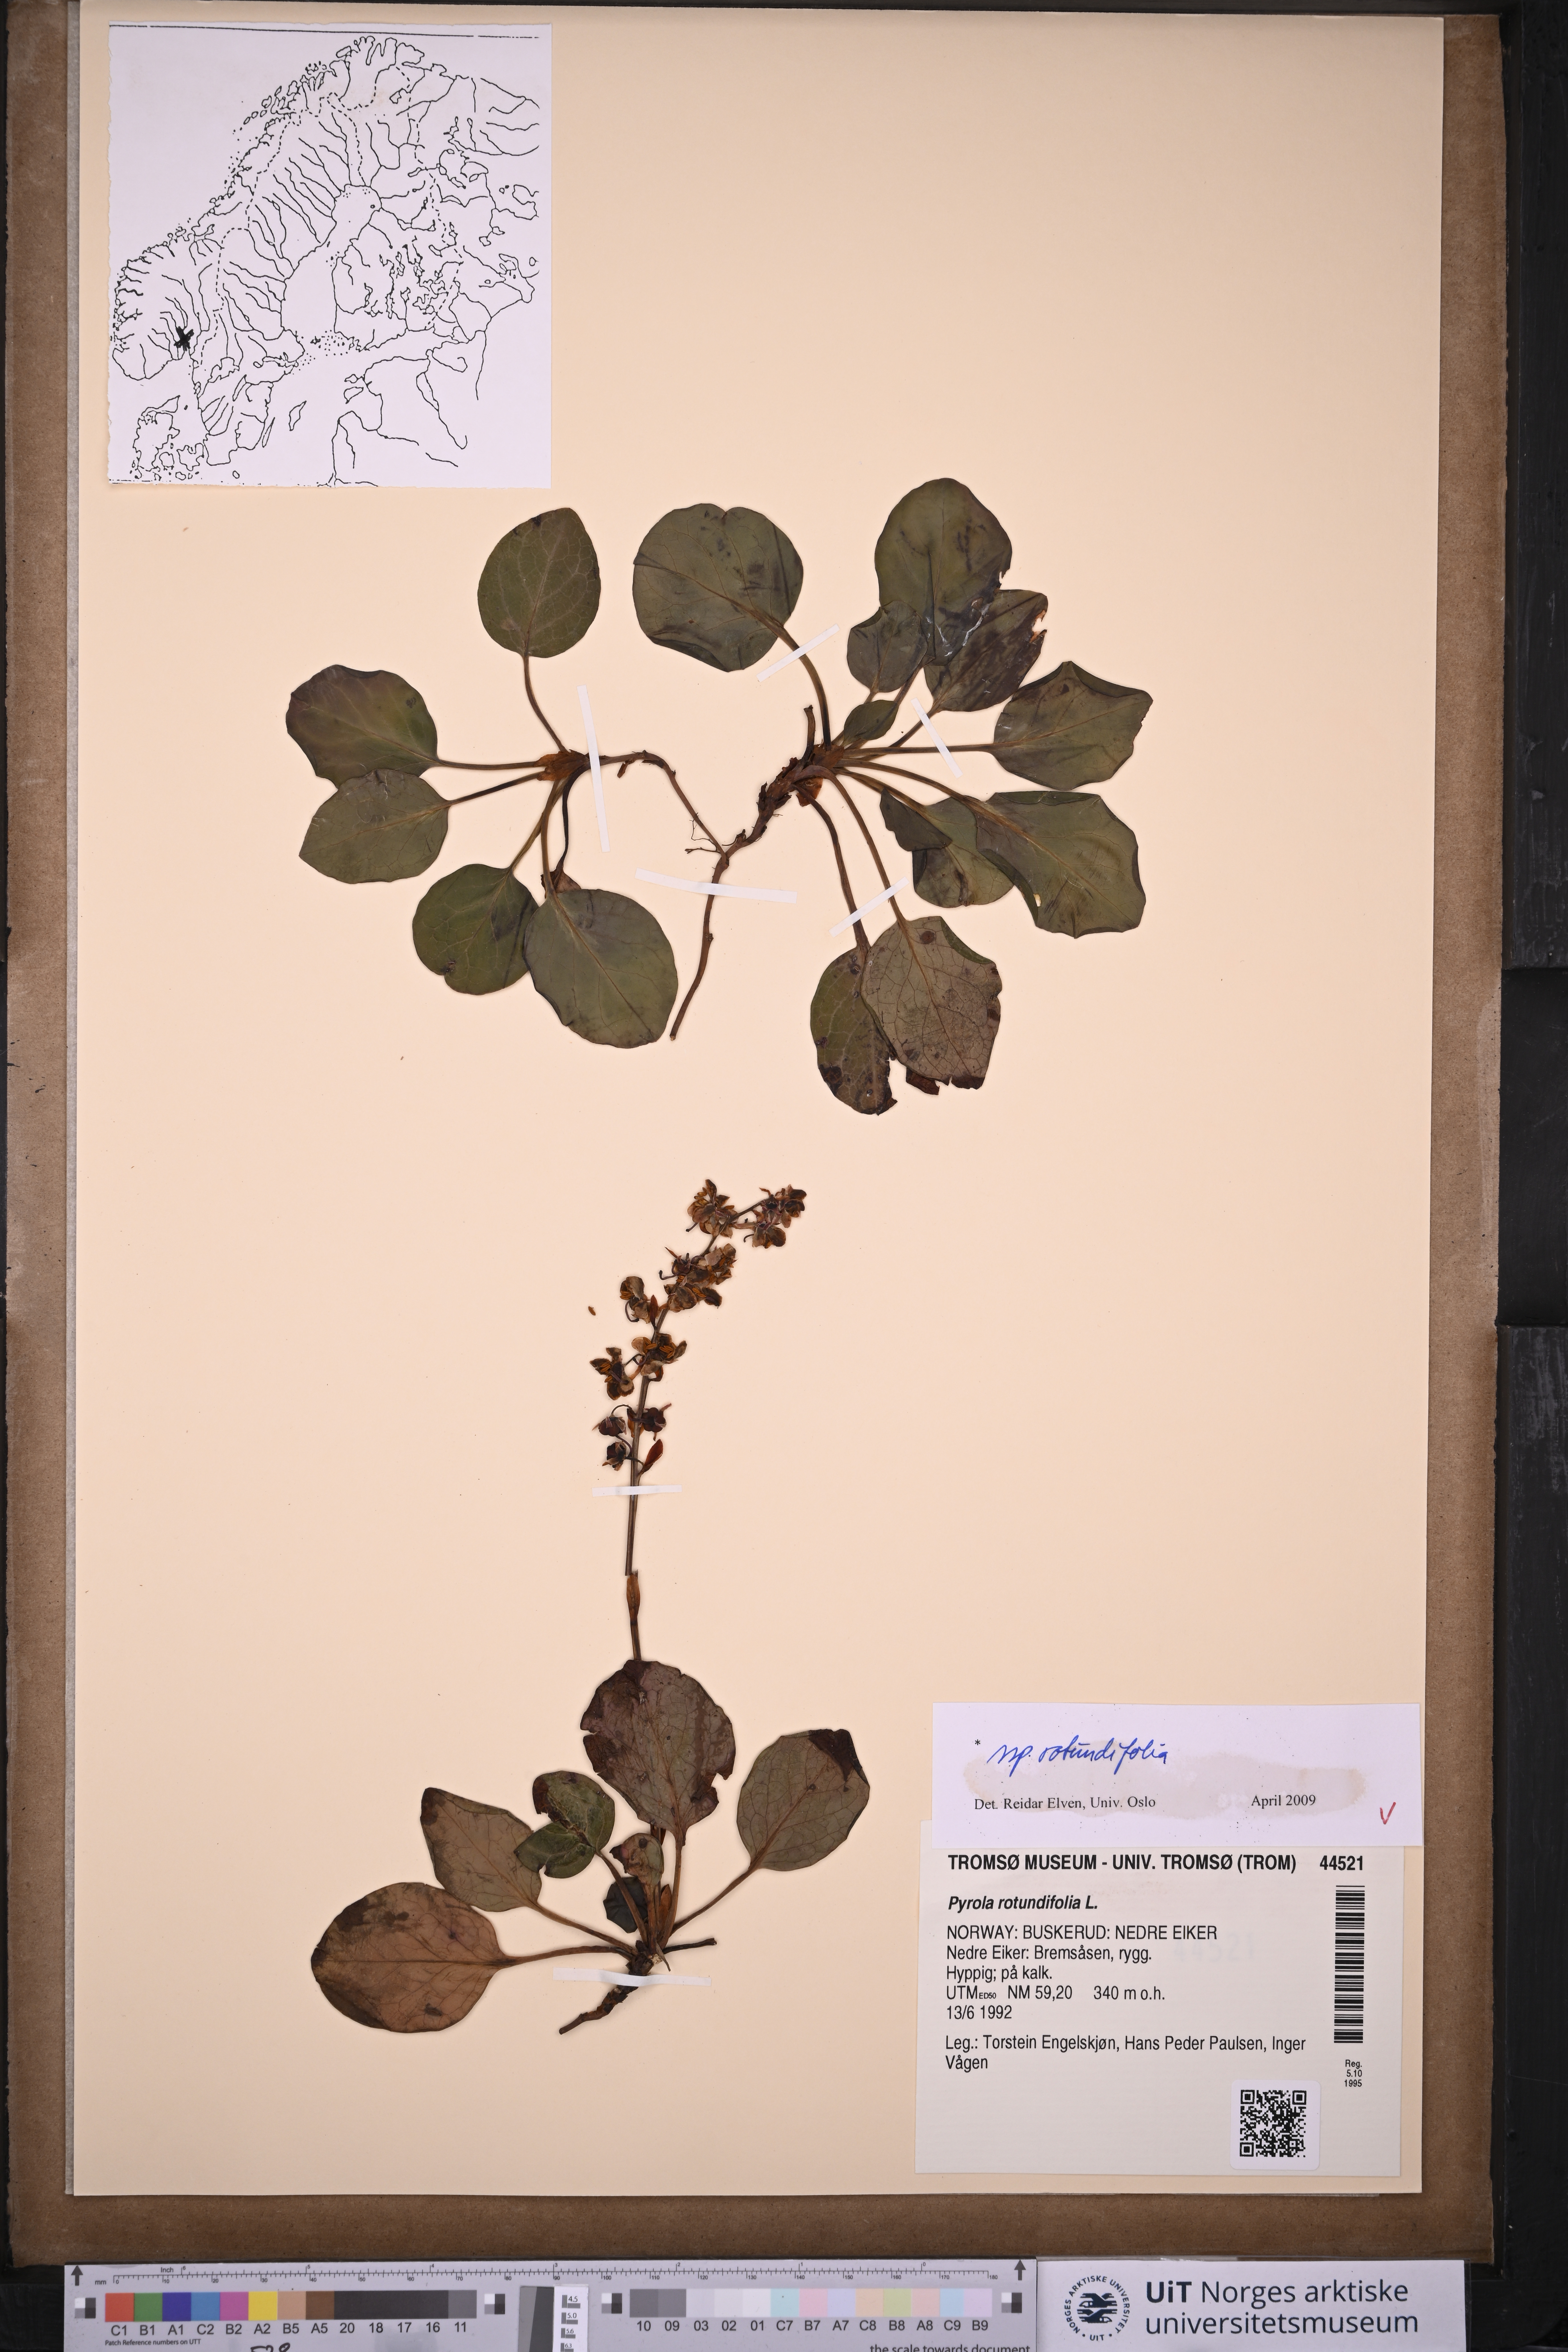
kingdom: Plantae
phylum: Tracheophyta
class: Magnoliopsida
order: Ericales
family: Ericaceae
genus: Pyrola
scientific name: Pyrola rotundifolia
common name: Round-leaved wintergreen
